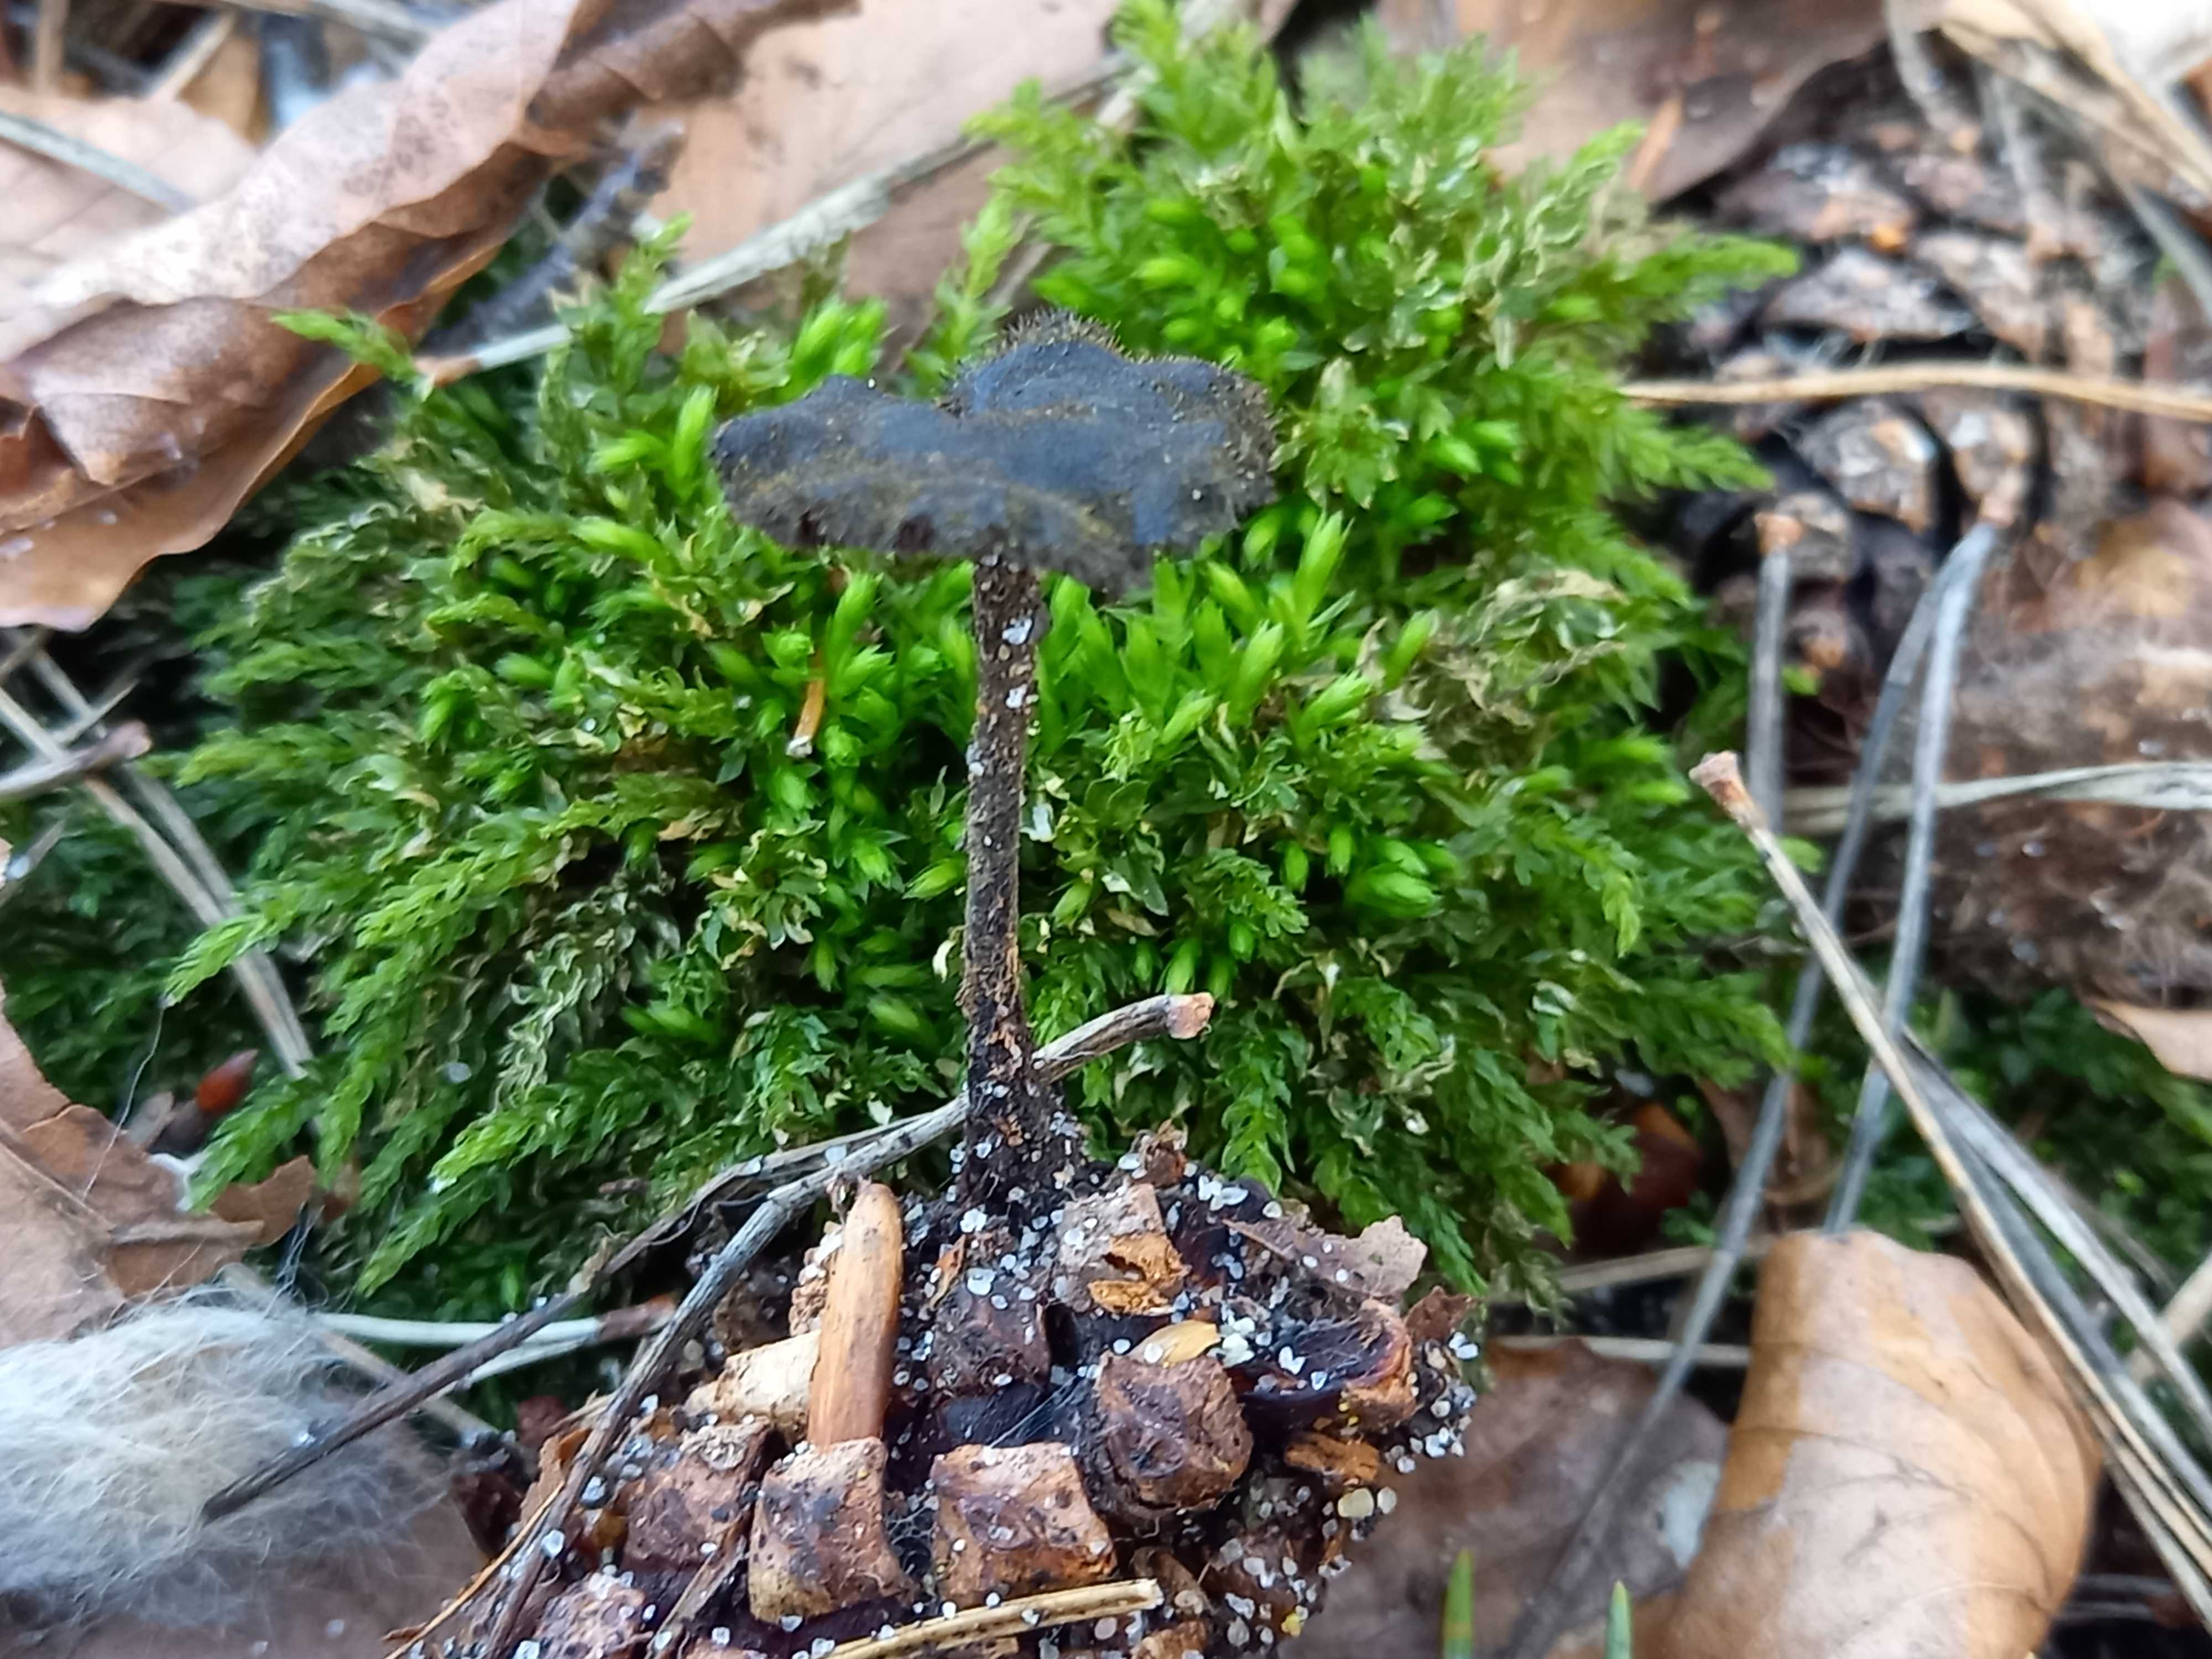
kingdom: Fungi
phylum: Basidiomycota
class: Agaricomycetes
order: Russulales
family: Auriscalpiaceae
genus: Auriscalpium
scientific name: Auriscalpium vulgare
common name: koglepigsvamp
